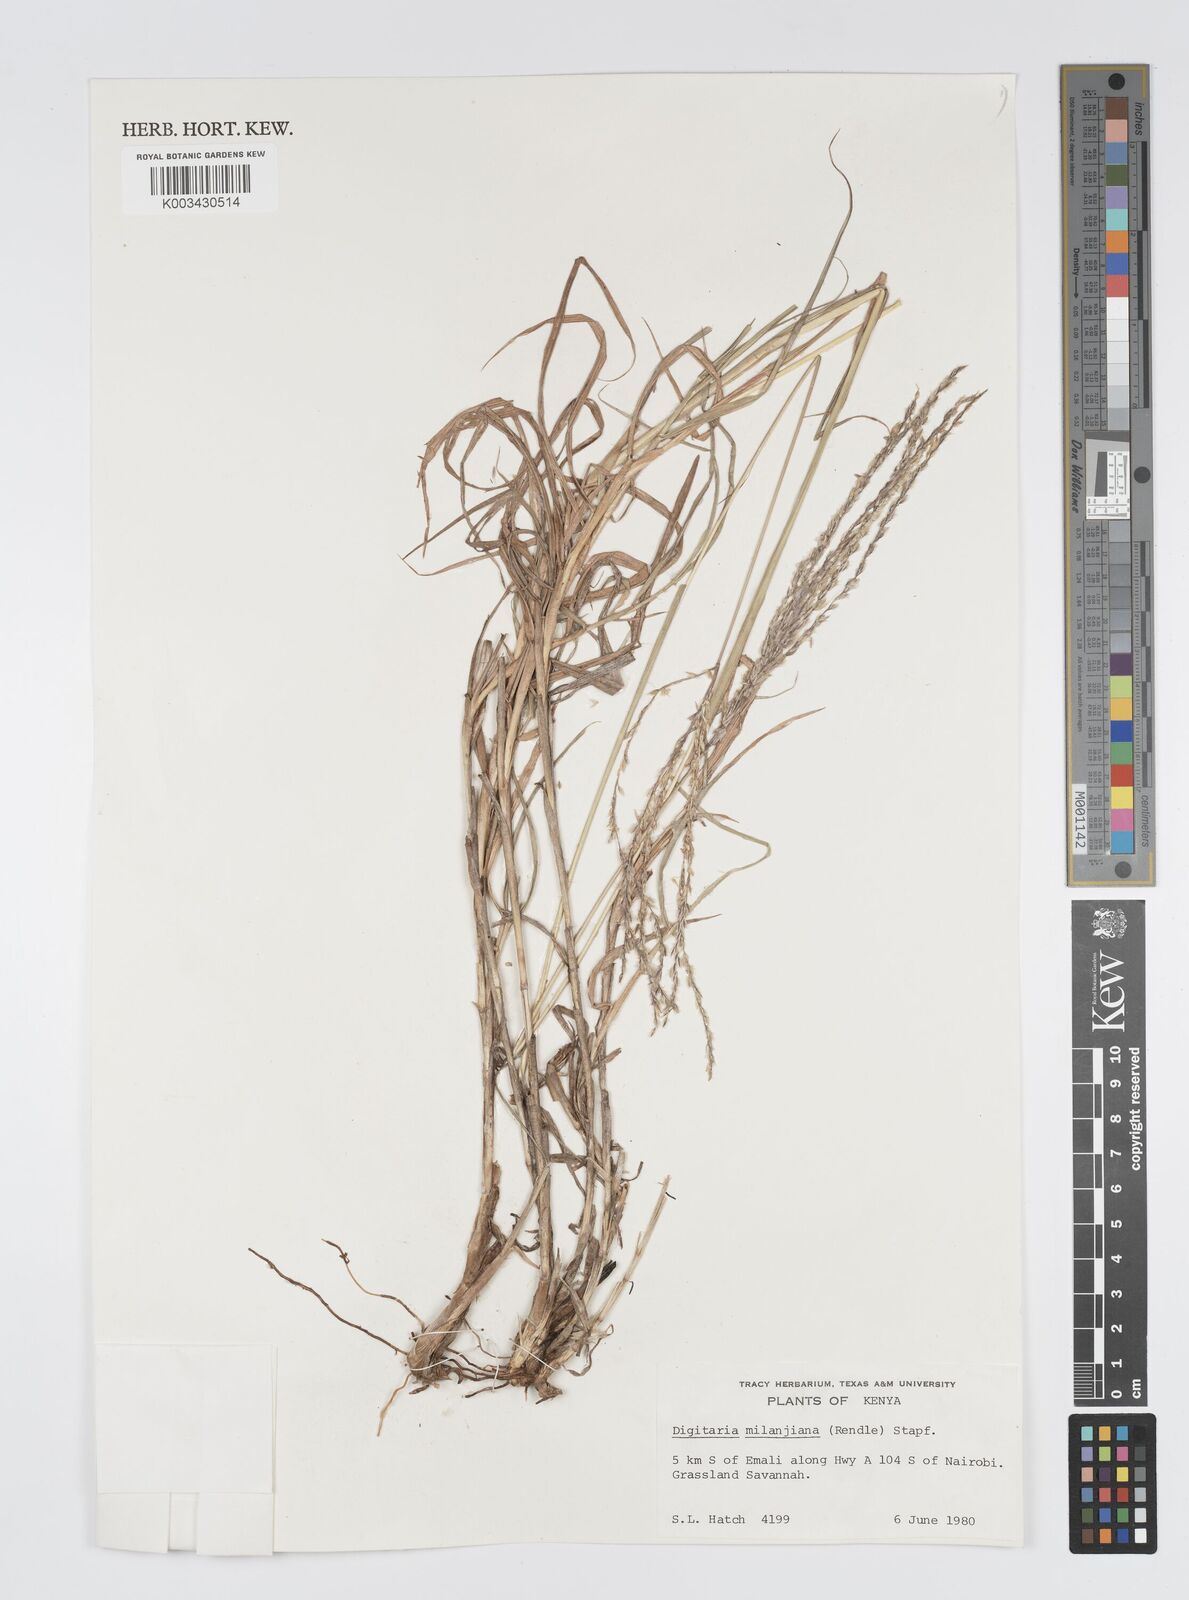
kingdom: Plantae
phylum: Tracheophyta
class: Liliopsida
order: Poales
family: Poaceae
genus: Digitaria
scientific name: Digitaria milanjiana
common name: Madagascar crabgrass
